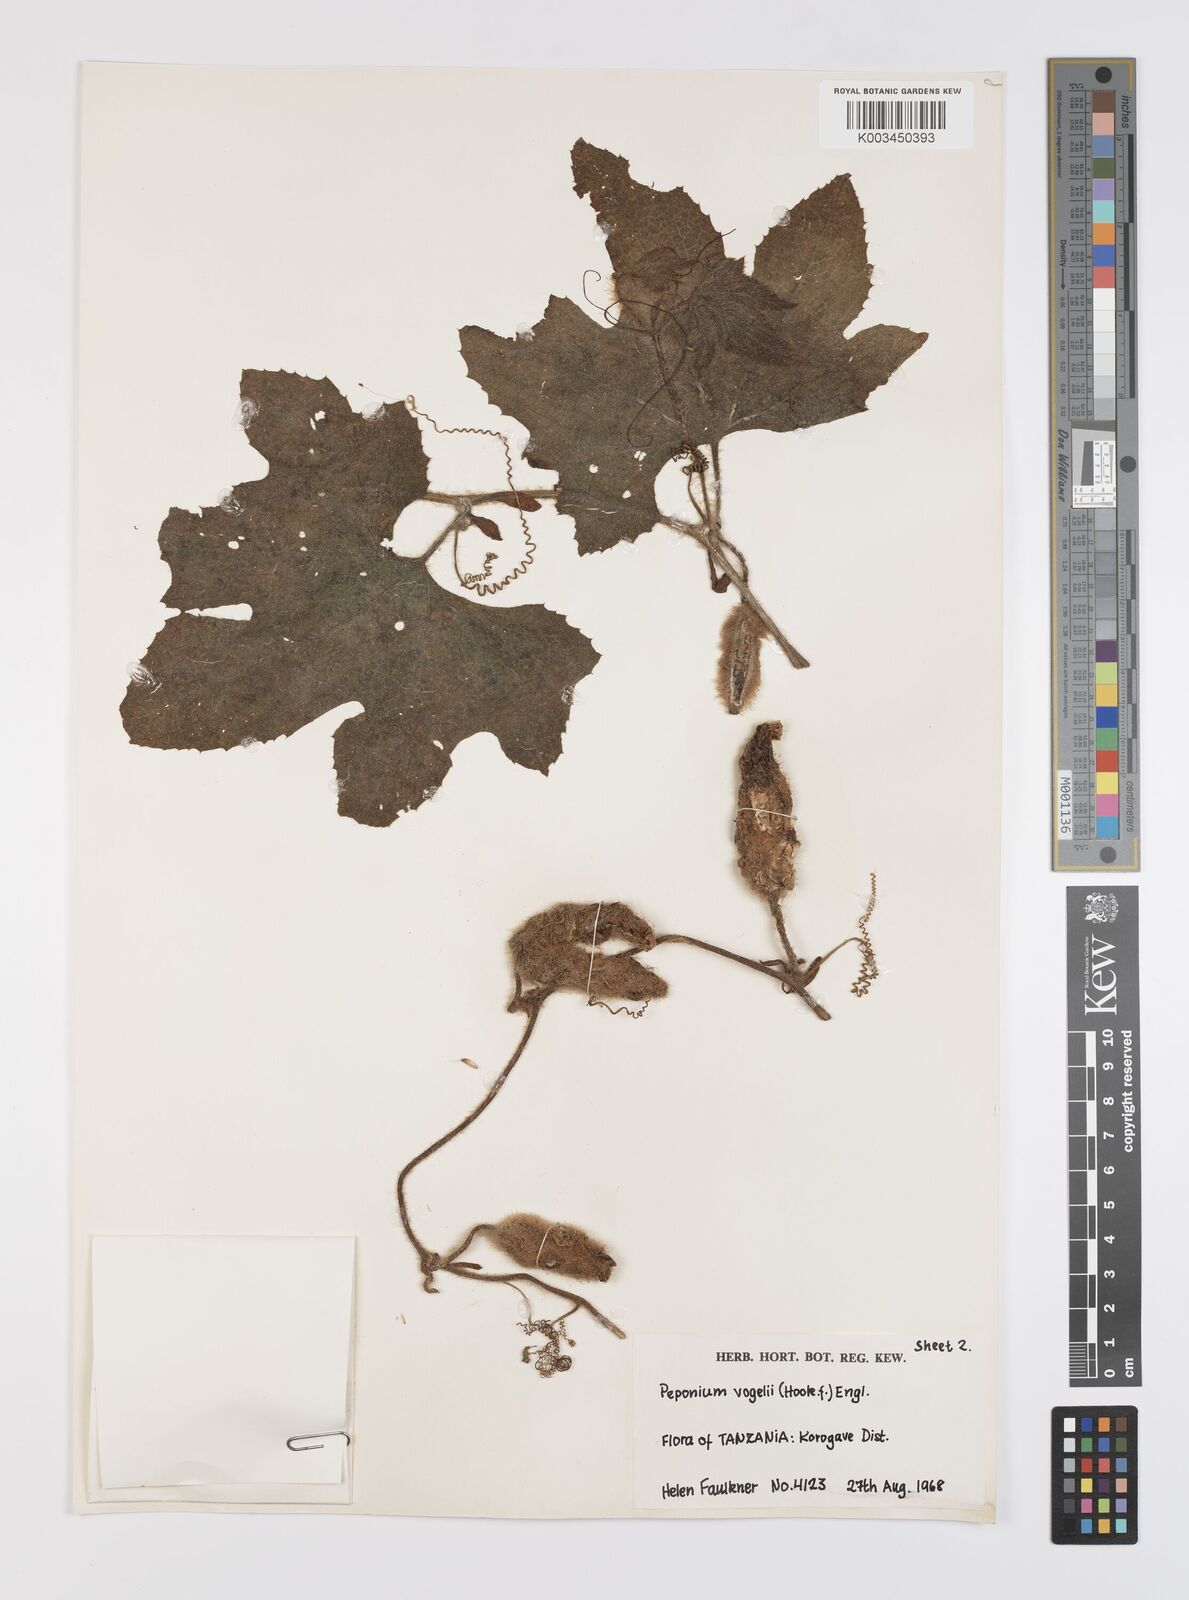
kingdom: Plantae
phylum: Tracheophyta
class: Magnoliopsida
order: Cucurbitales
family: Cucurbitaceae
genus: Peponium
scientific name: Peponium vogelii
